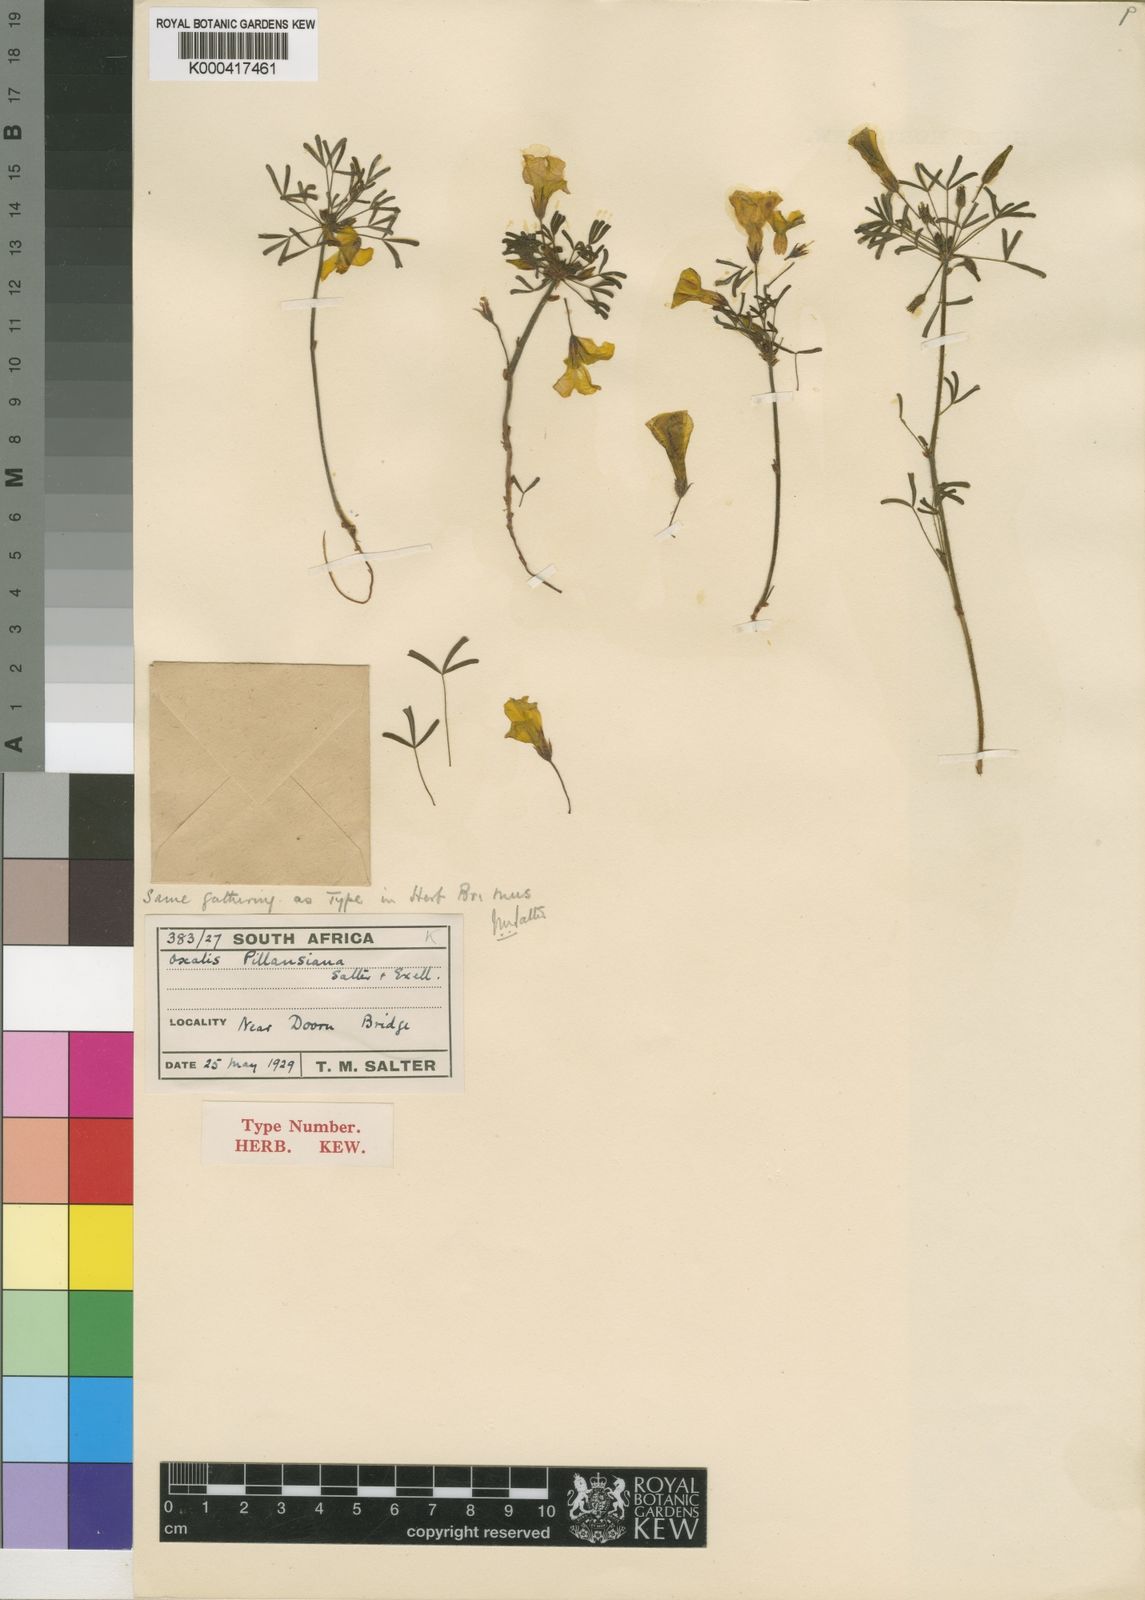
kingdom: Plantae
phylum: Tracheophyta
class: Magnoliopsida
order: Oxalidales
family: Oxalidaceae
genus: Oxalis
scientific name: Oxalis pillansiana
